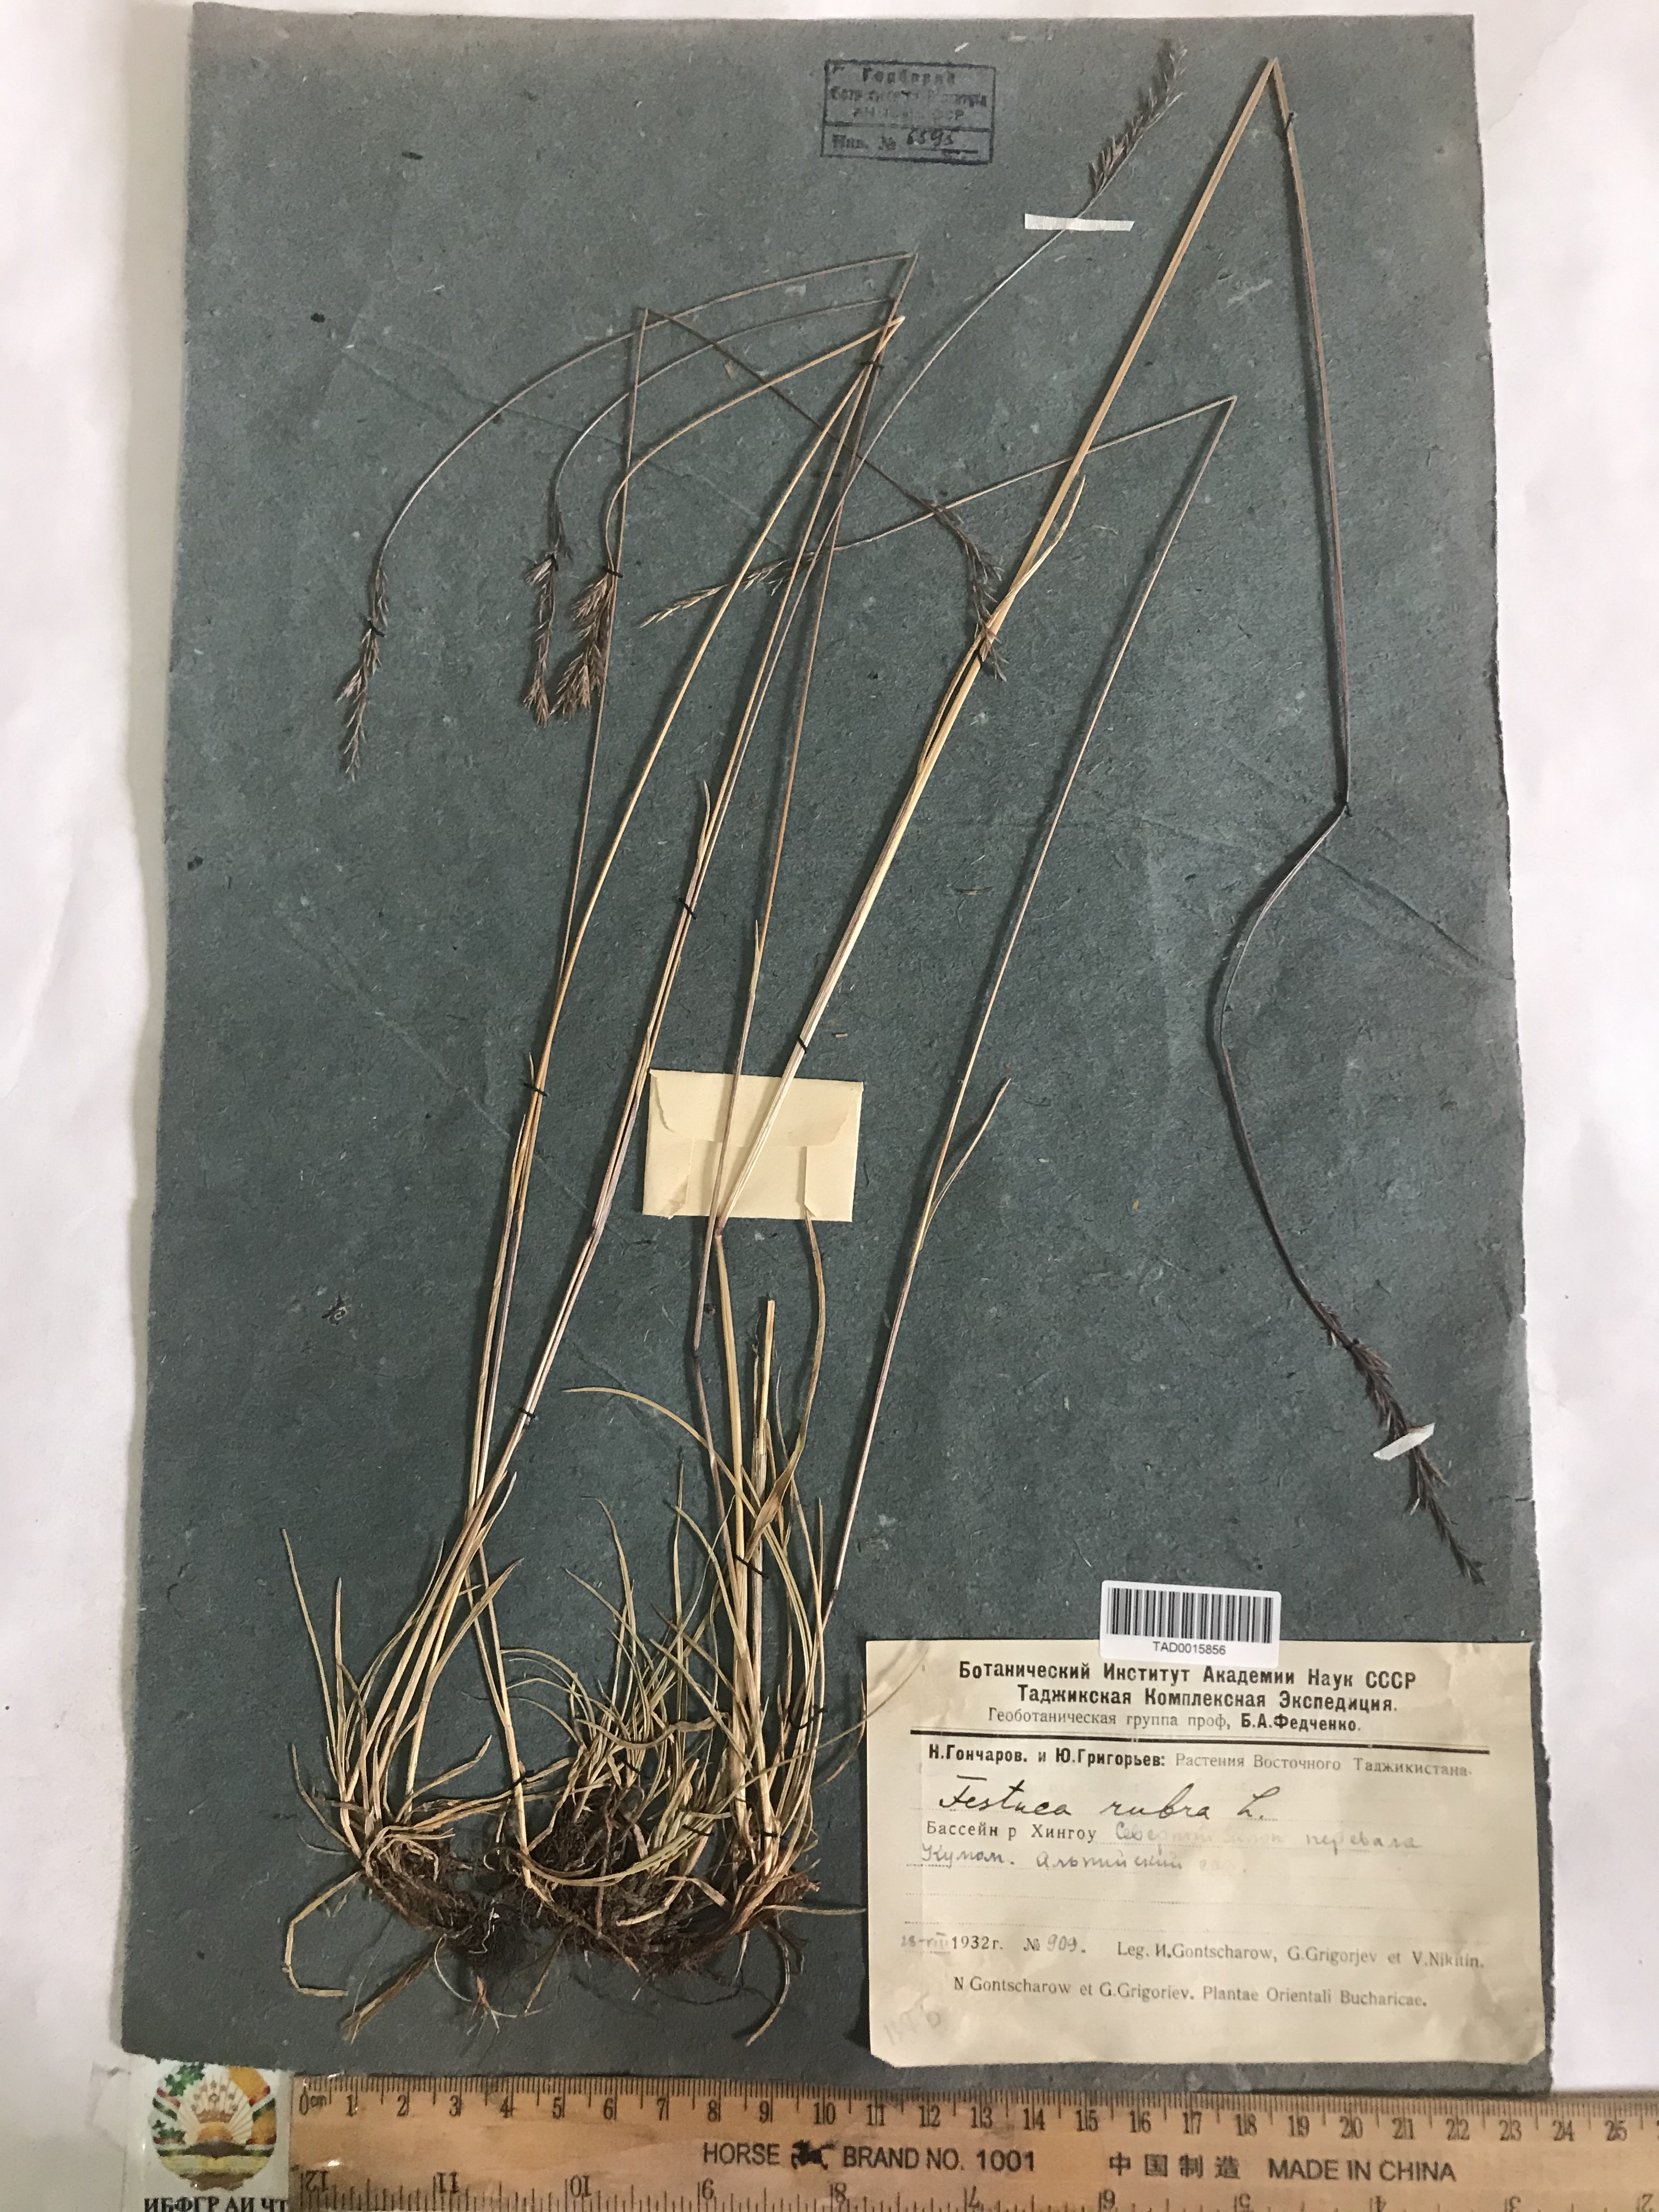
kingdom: Plantae
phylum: Tracheophyta
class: Liliopsida
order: Poales
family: Poaceae
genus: Festuca
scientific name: Festuca rubra
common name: Red fescue
